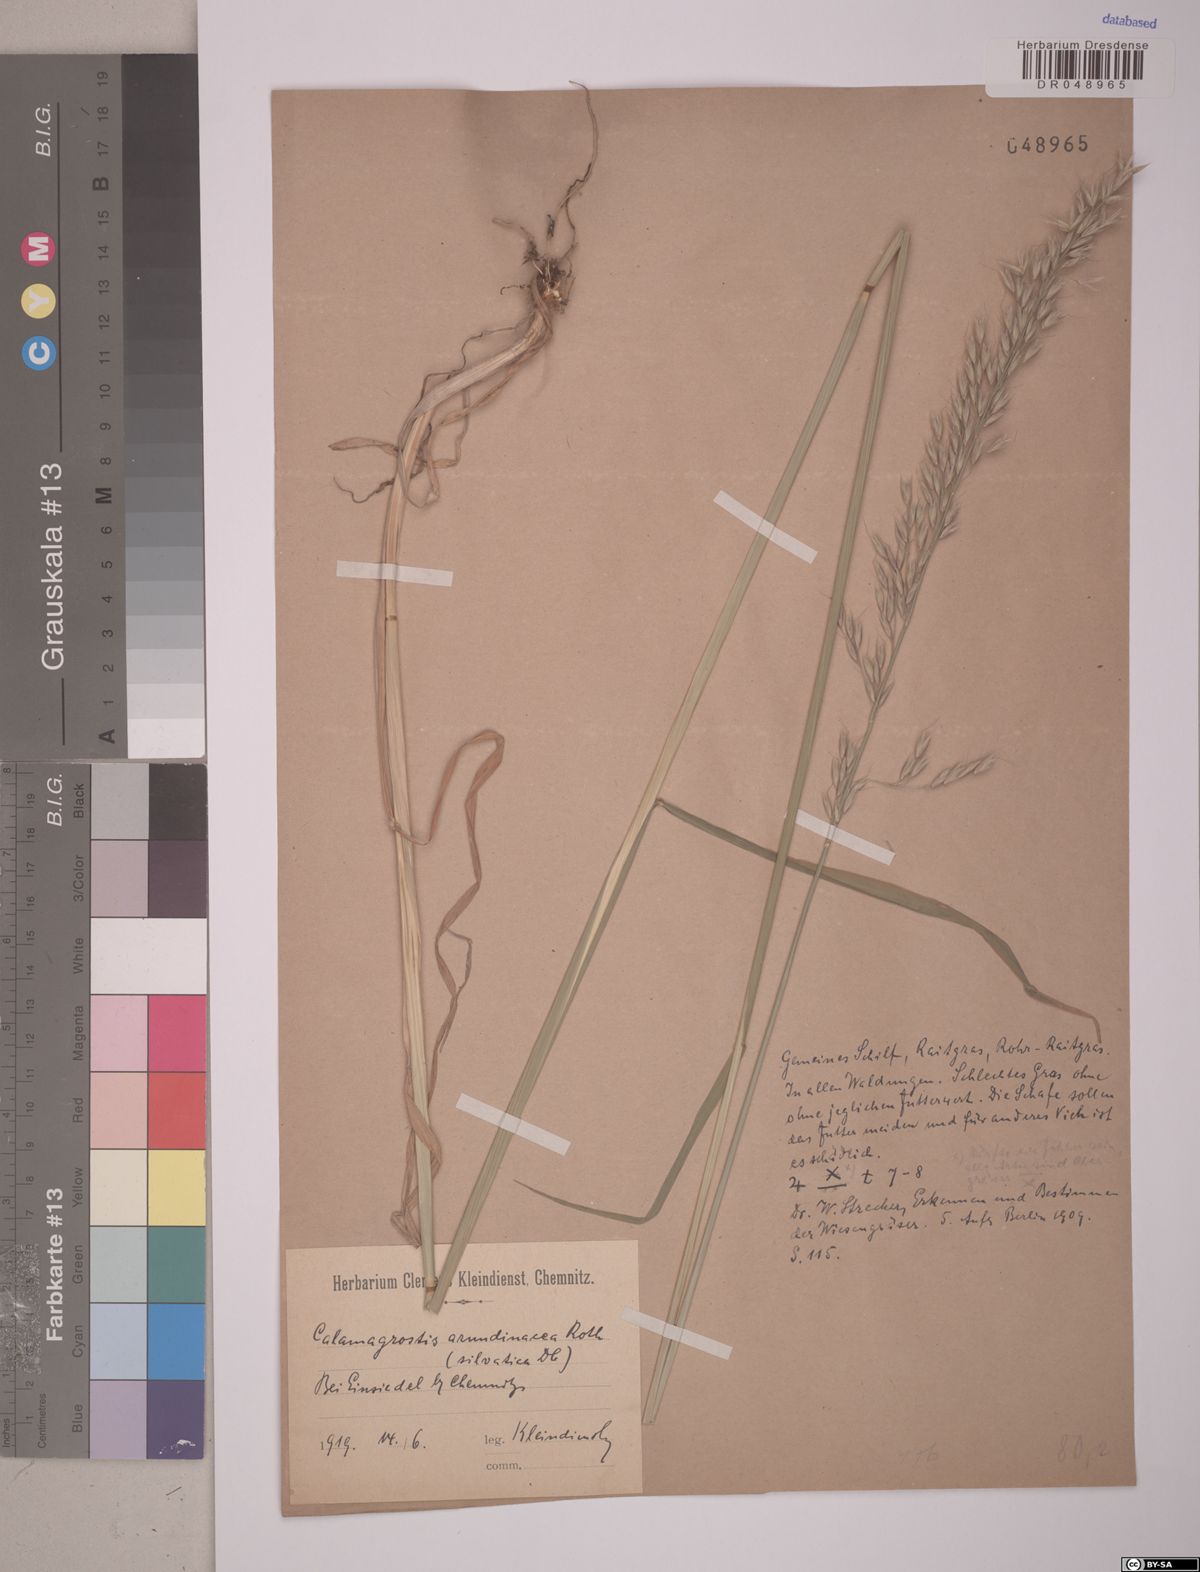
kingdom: Plantae
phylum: Tracheophyta
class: Liliopsida
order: Poales
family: Poaceae
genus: Calamagrostis
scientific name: Calamagrostis arundinacea
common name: Metskastik
